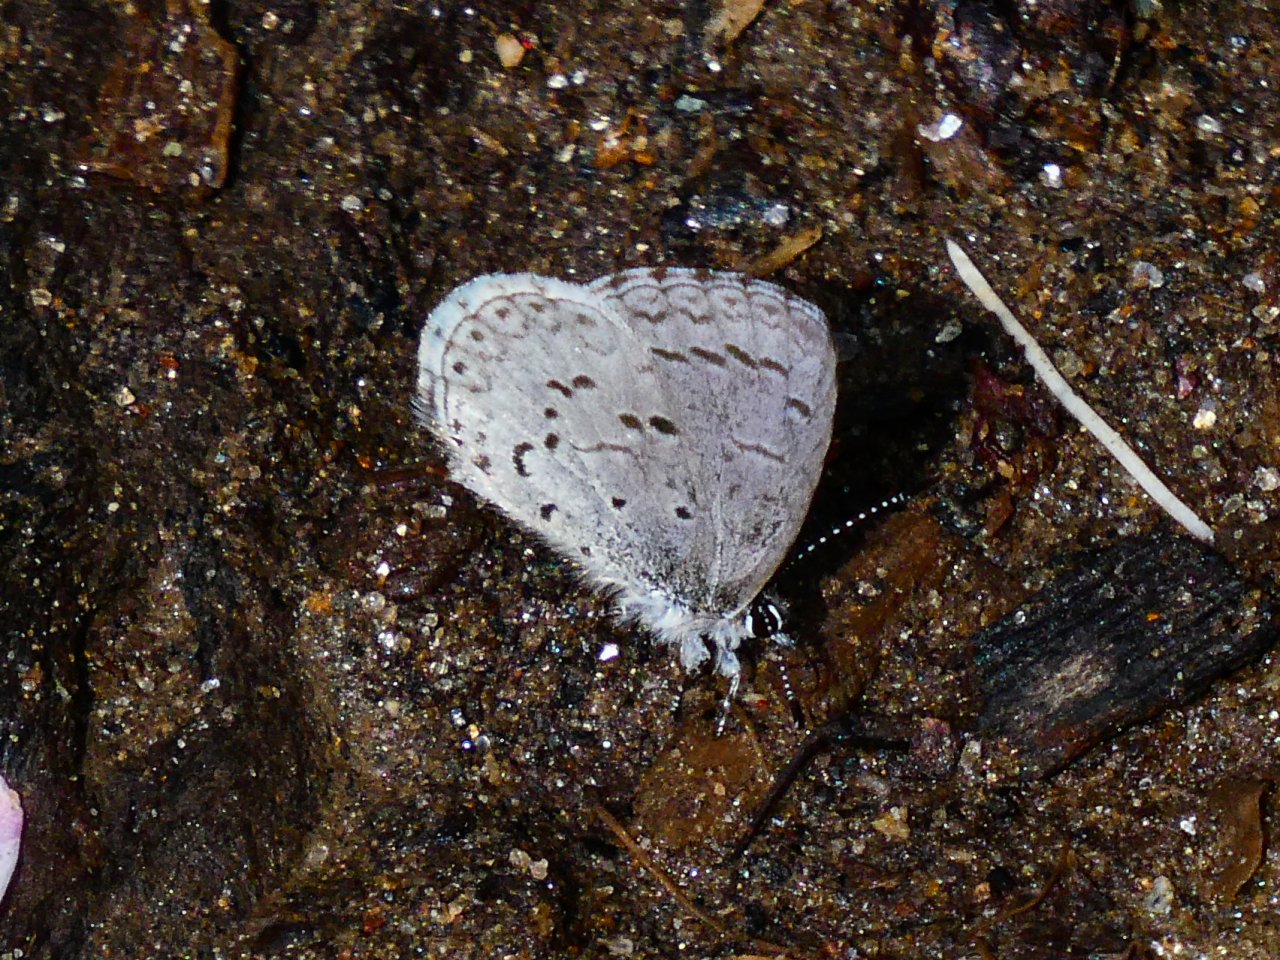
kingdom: Animalia
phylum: Arthropoda
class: Insecta
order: Lepidoptera
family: Lycaenidae
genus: Celastrina
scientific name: Celastrina ladon
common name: Spring Azure
